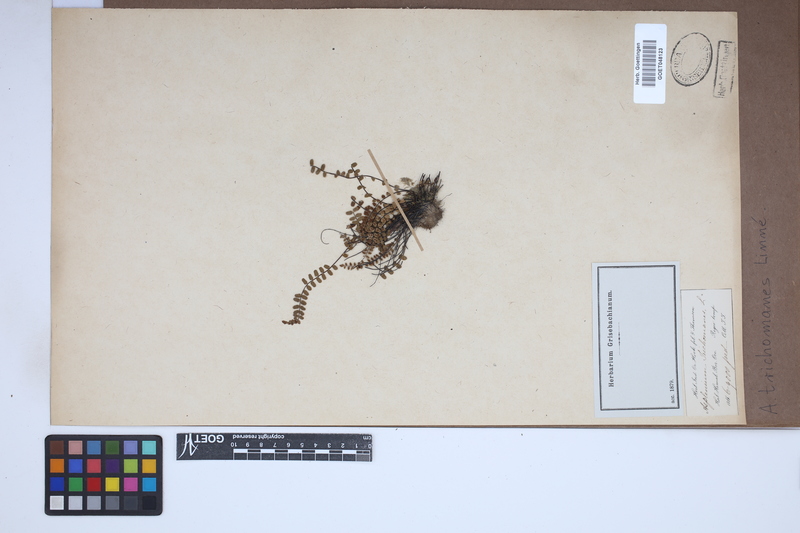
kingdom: Plantae
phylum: Tracheophyta
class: Polypodiopsida
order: Polypodiales
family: Aspleniaceae
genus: Asplenium
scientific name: Asplenium trichomanes
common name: Maidenhair spleenwort
